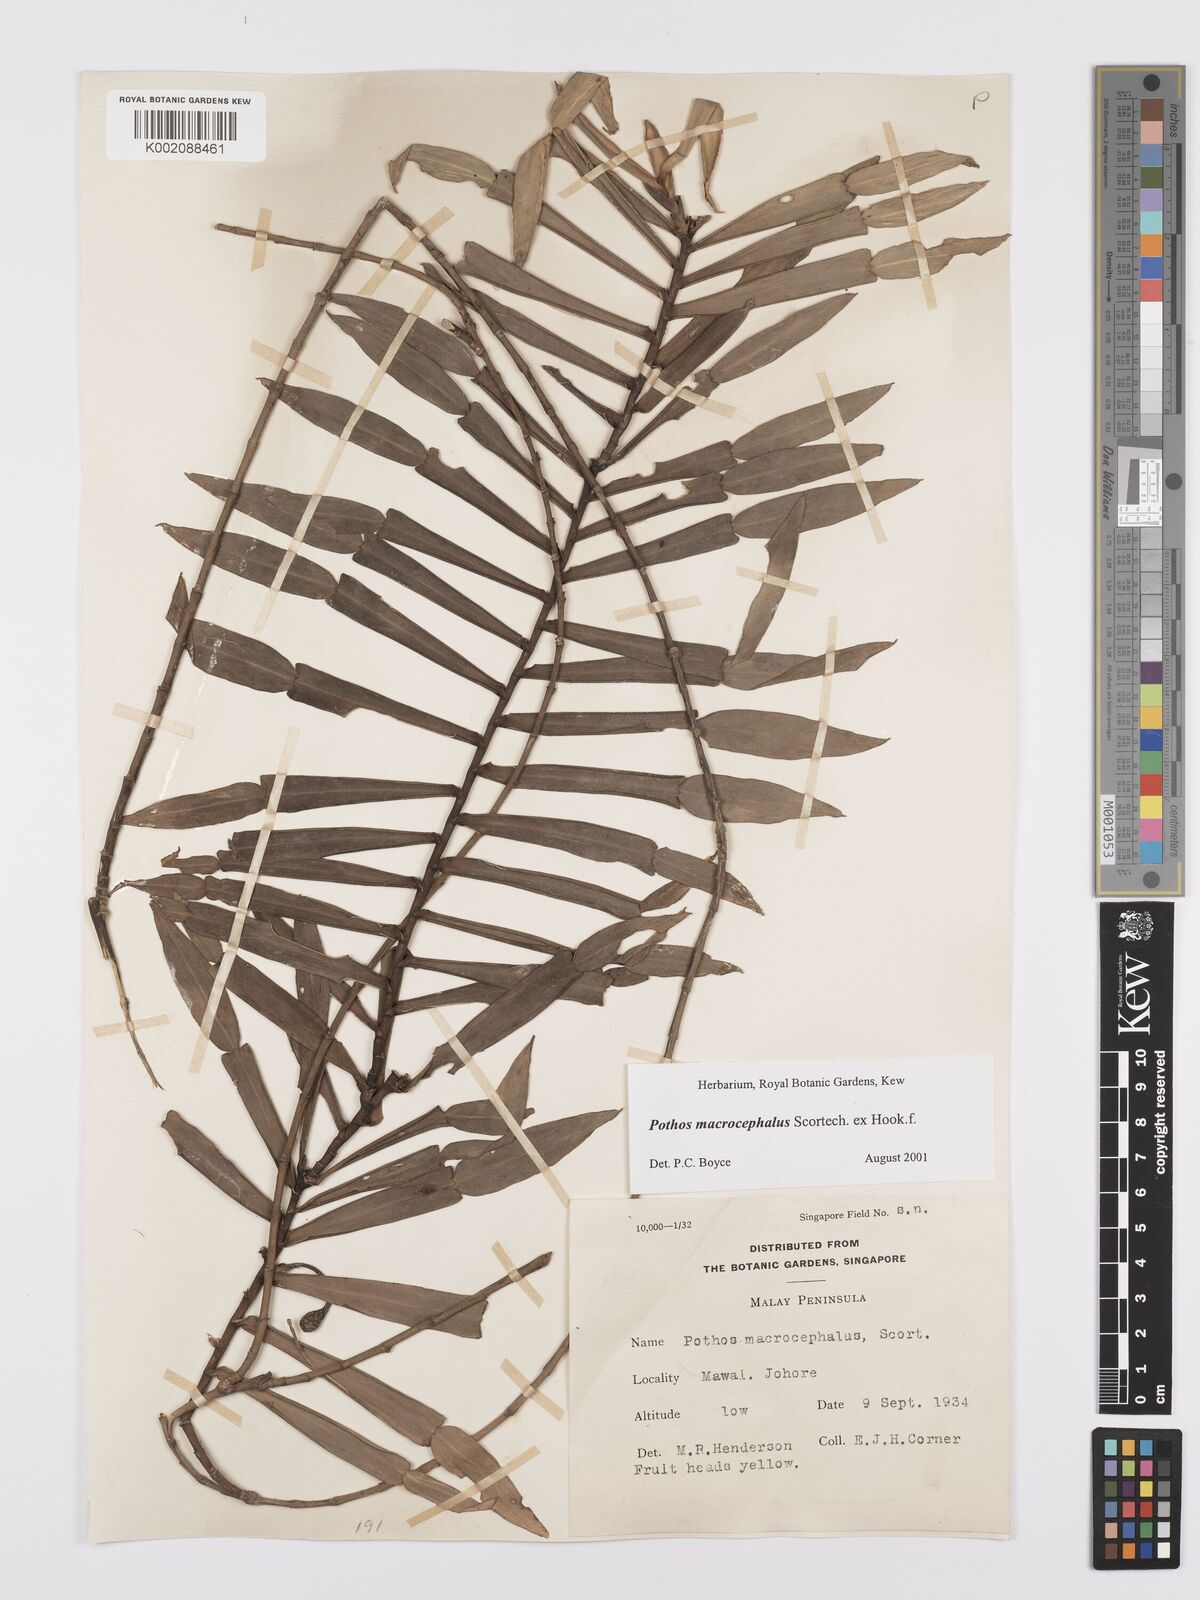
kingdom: Plantae
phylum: Tracheophyta
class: Liliopsida
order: Alismatales
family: Araceae
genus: Pothos
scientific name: Pothos macrocephalus
